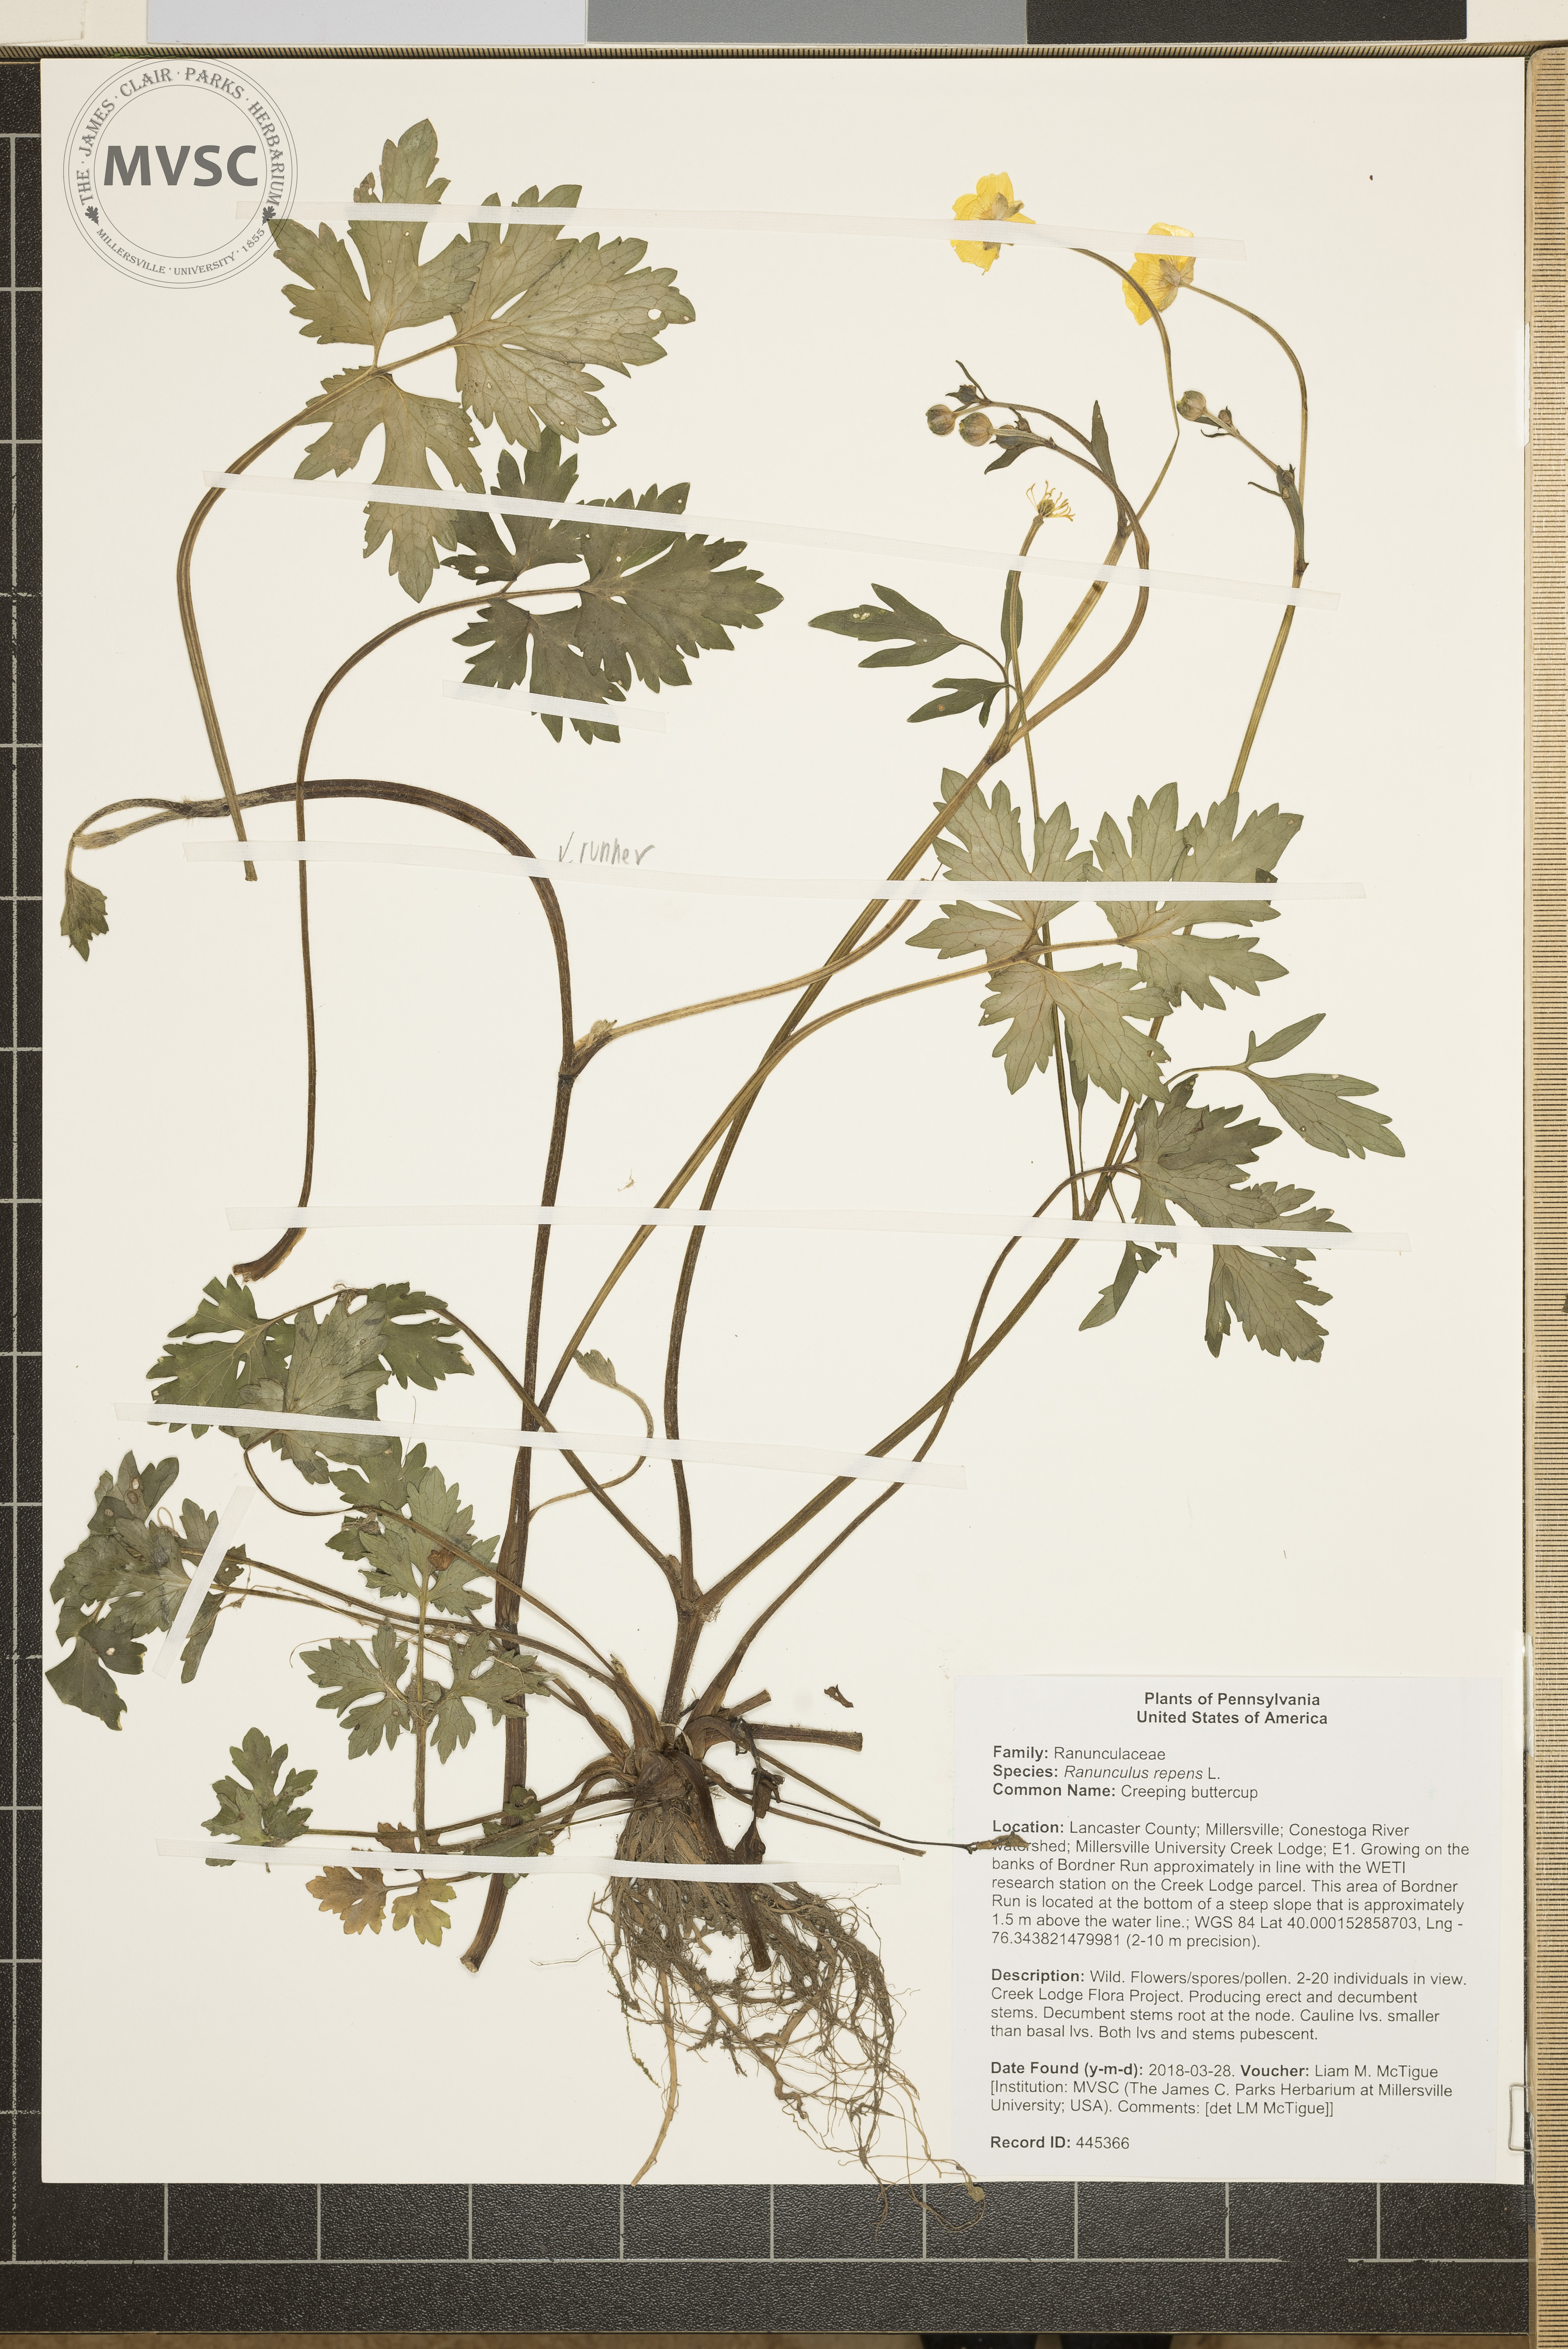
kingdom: Plantae
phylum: Tracheophyta
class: Magnoliopsida
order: Ranunculales
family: Ranunculaceae
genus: Ranunculus
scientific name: Ranunculus repens
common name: Creeping buttercup
